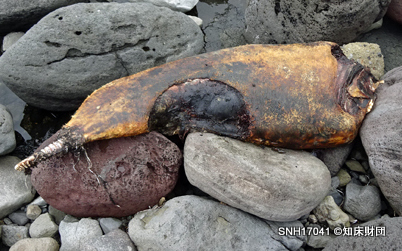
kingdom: Animalia
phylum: Chordata
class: Mammalia
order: Cetacea
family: Phocoenidae
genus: Phocoenoides
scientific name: Phocoenoides dalli
